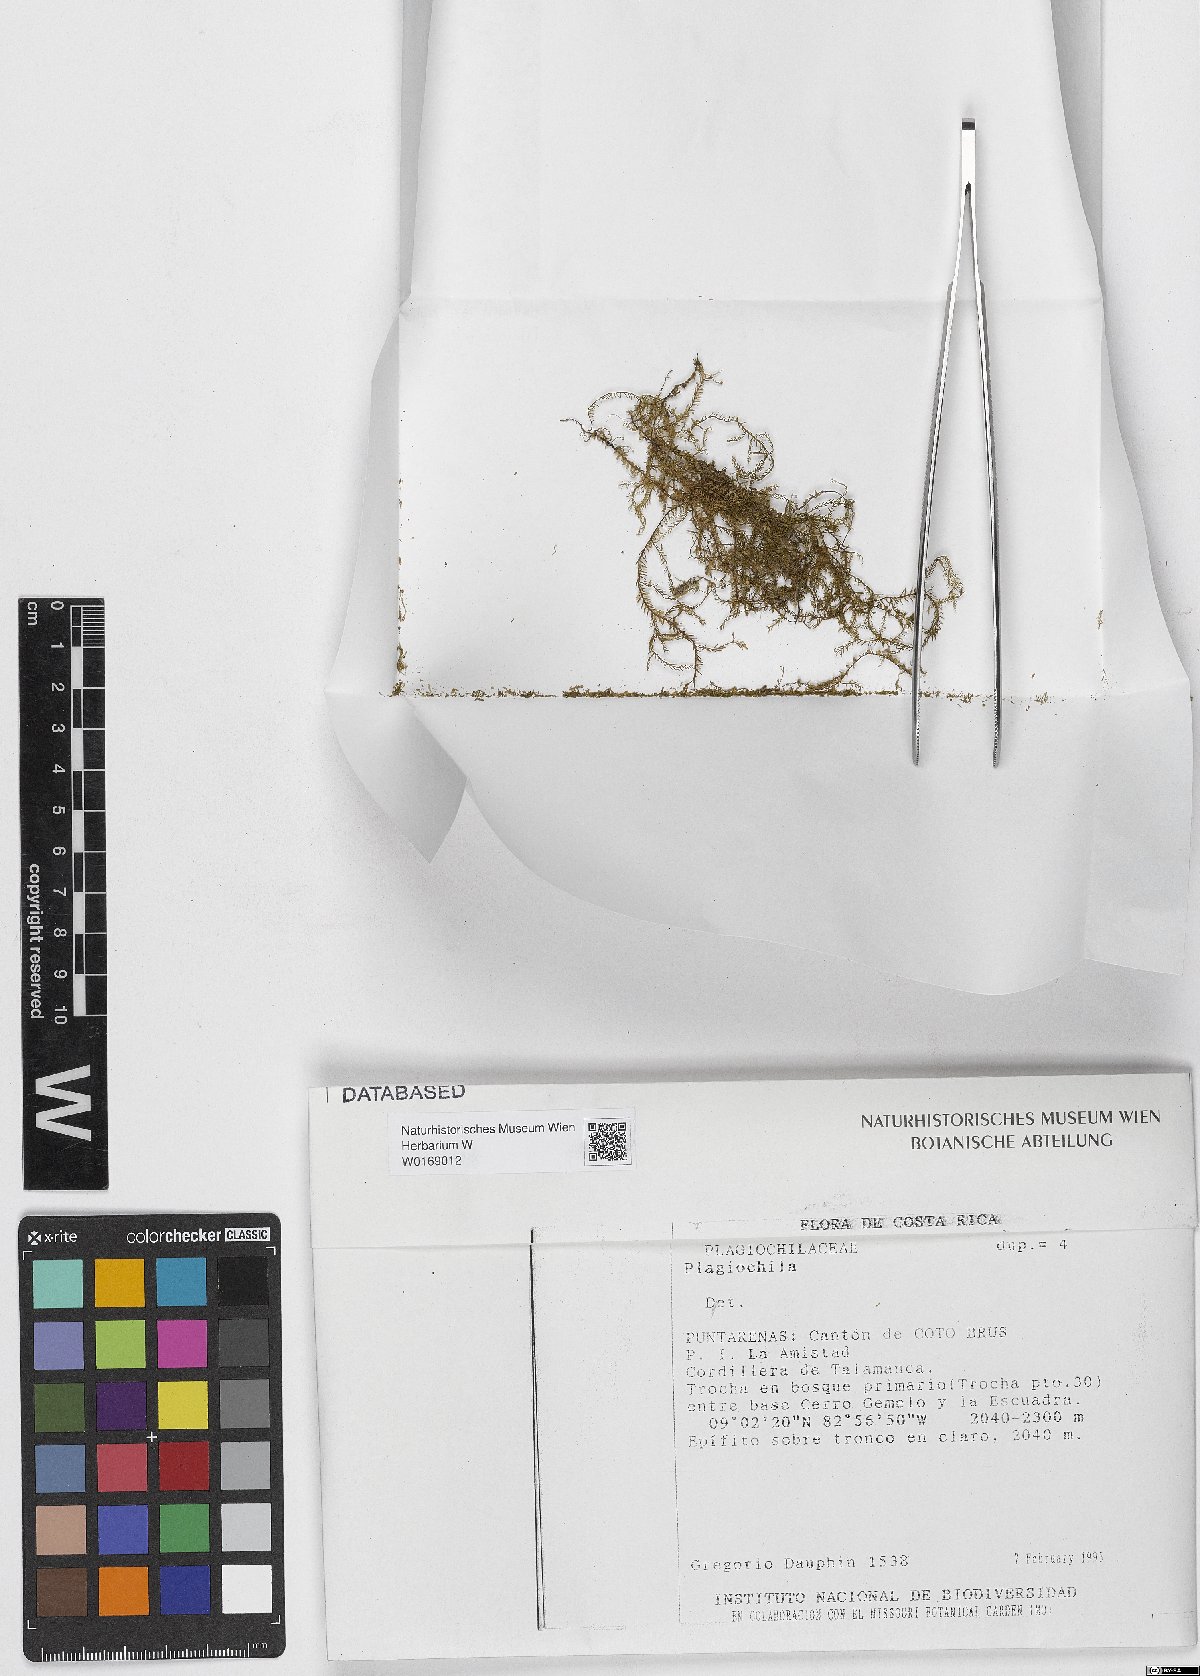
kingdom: Plantae
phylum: Marchantiophyta
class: Jungermanniopsida
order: Jungermanniales
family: Plagiochilaceae
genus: Plagiochila
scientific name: Plagiochila
